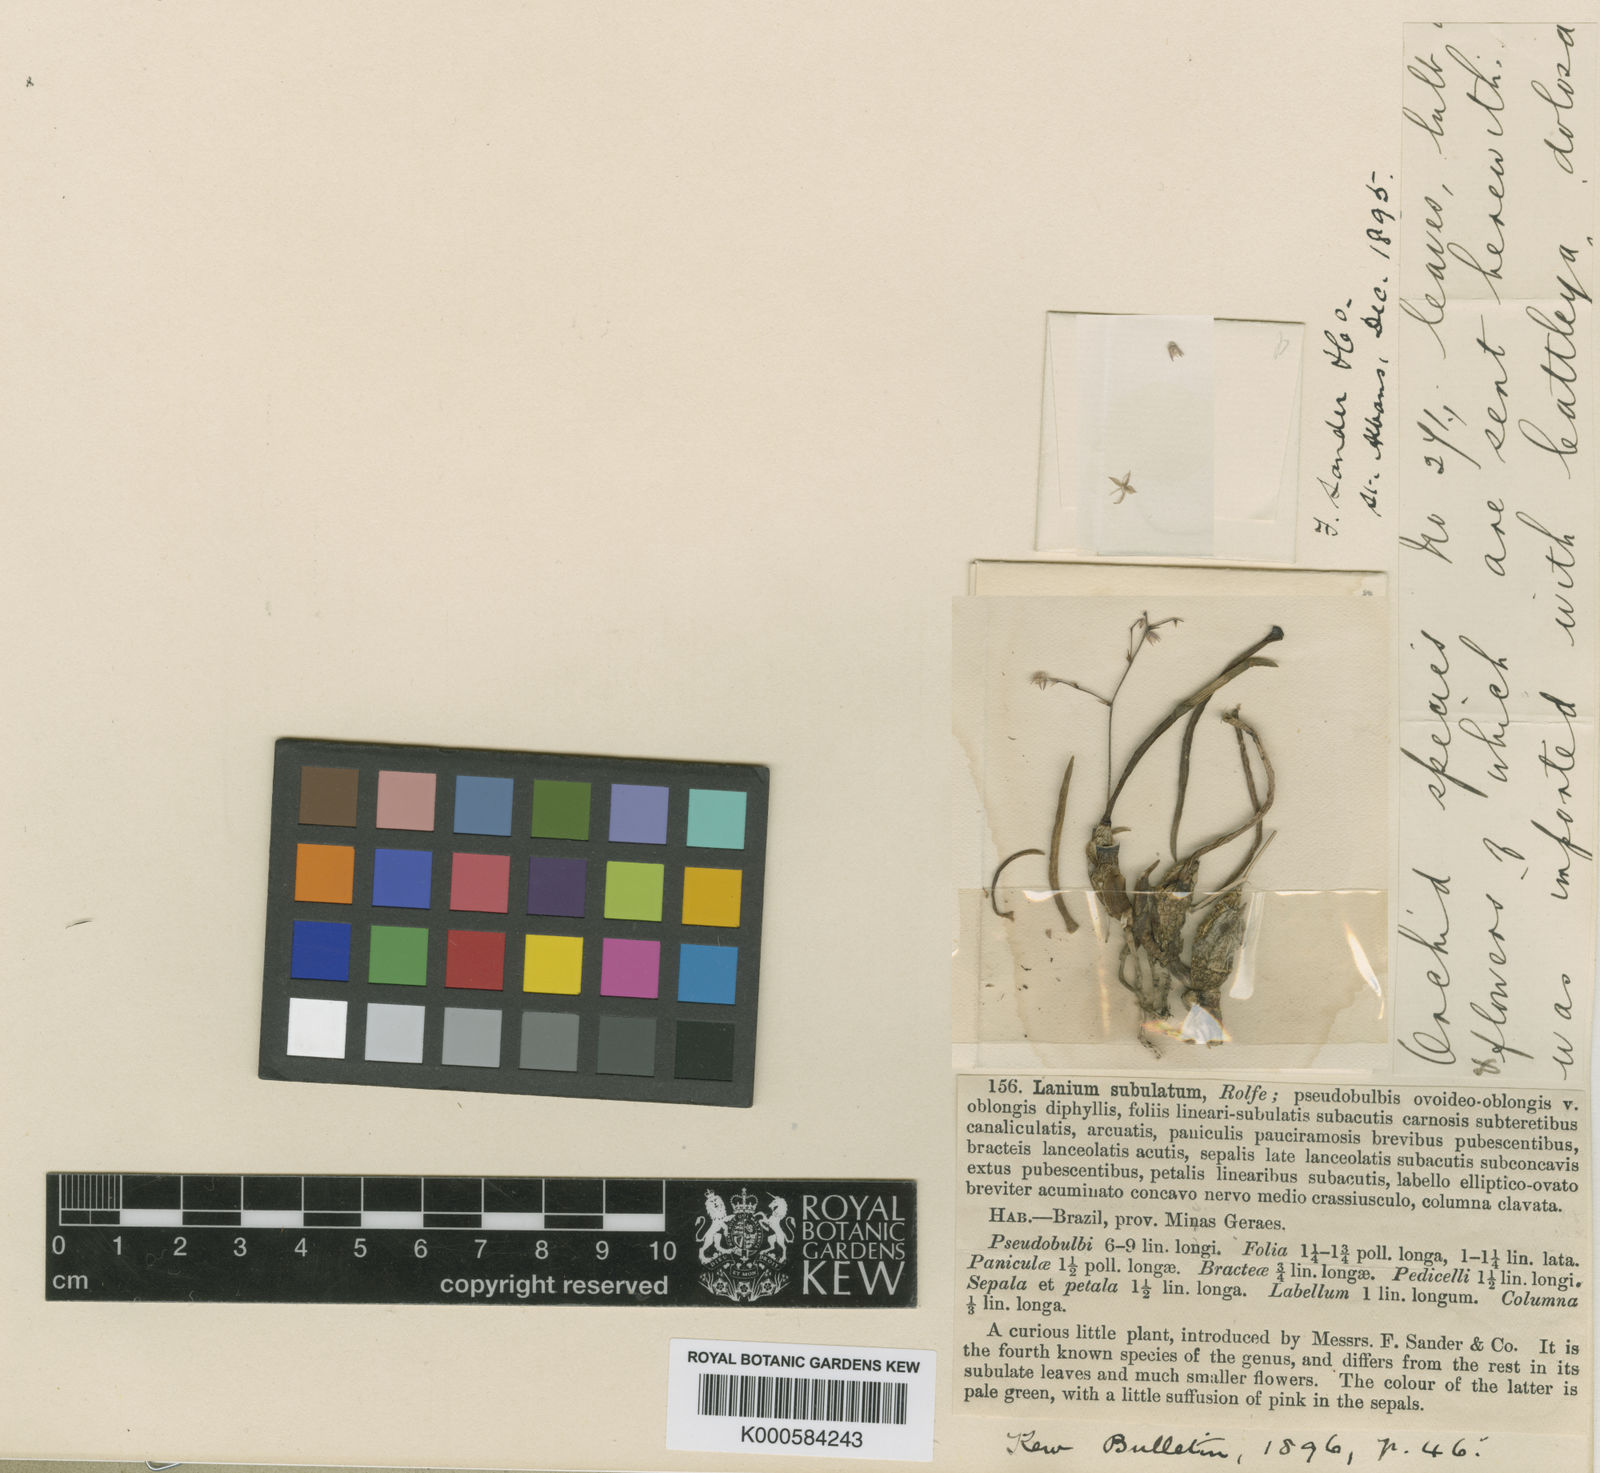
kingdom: Plantae
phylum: Tracheophyta
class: Liliopsida
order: Asparagales
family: Orchidaceae
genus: Epidendrum
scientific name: Epidendrum stiliferum
